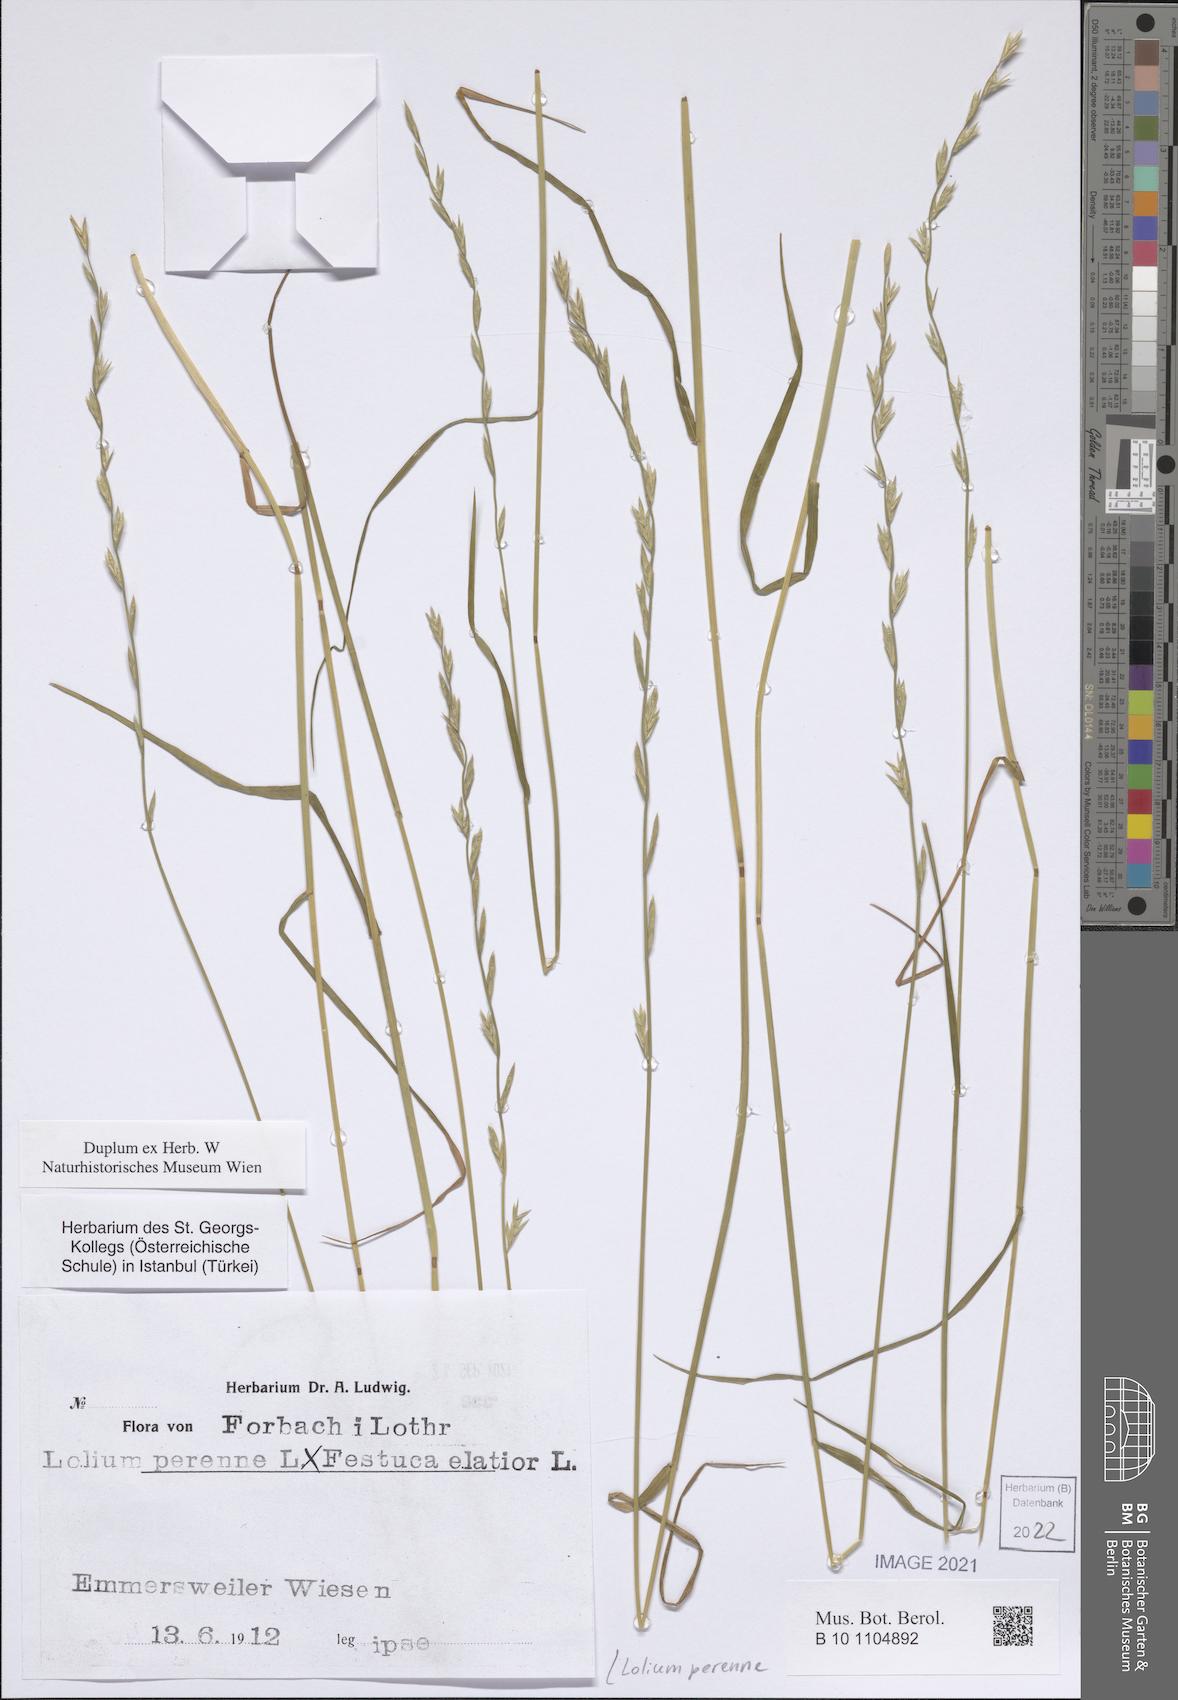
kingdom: Plantae
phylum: Tracheophyta
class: Liliopsida
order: Poales
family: Poaceae
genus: Lolium
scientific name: Lolium perenne
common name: Perennial ryegrass
